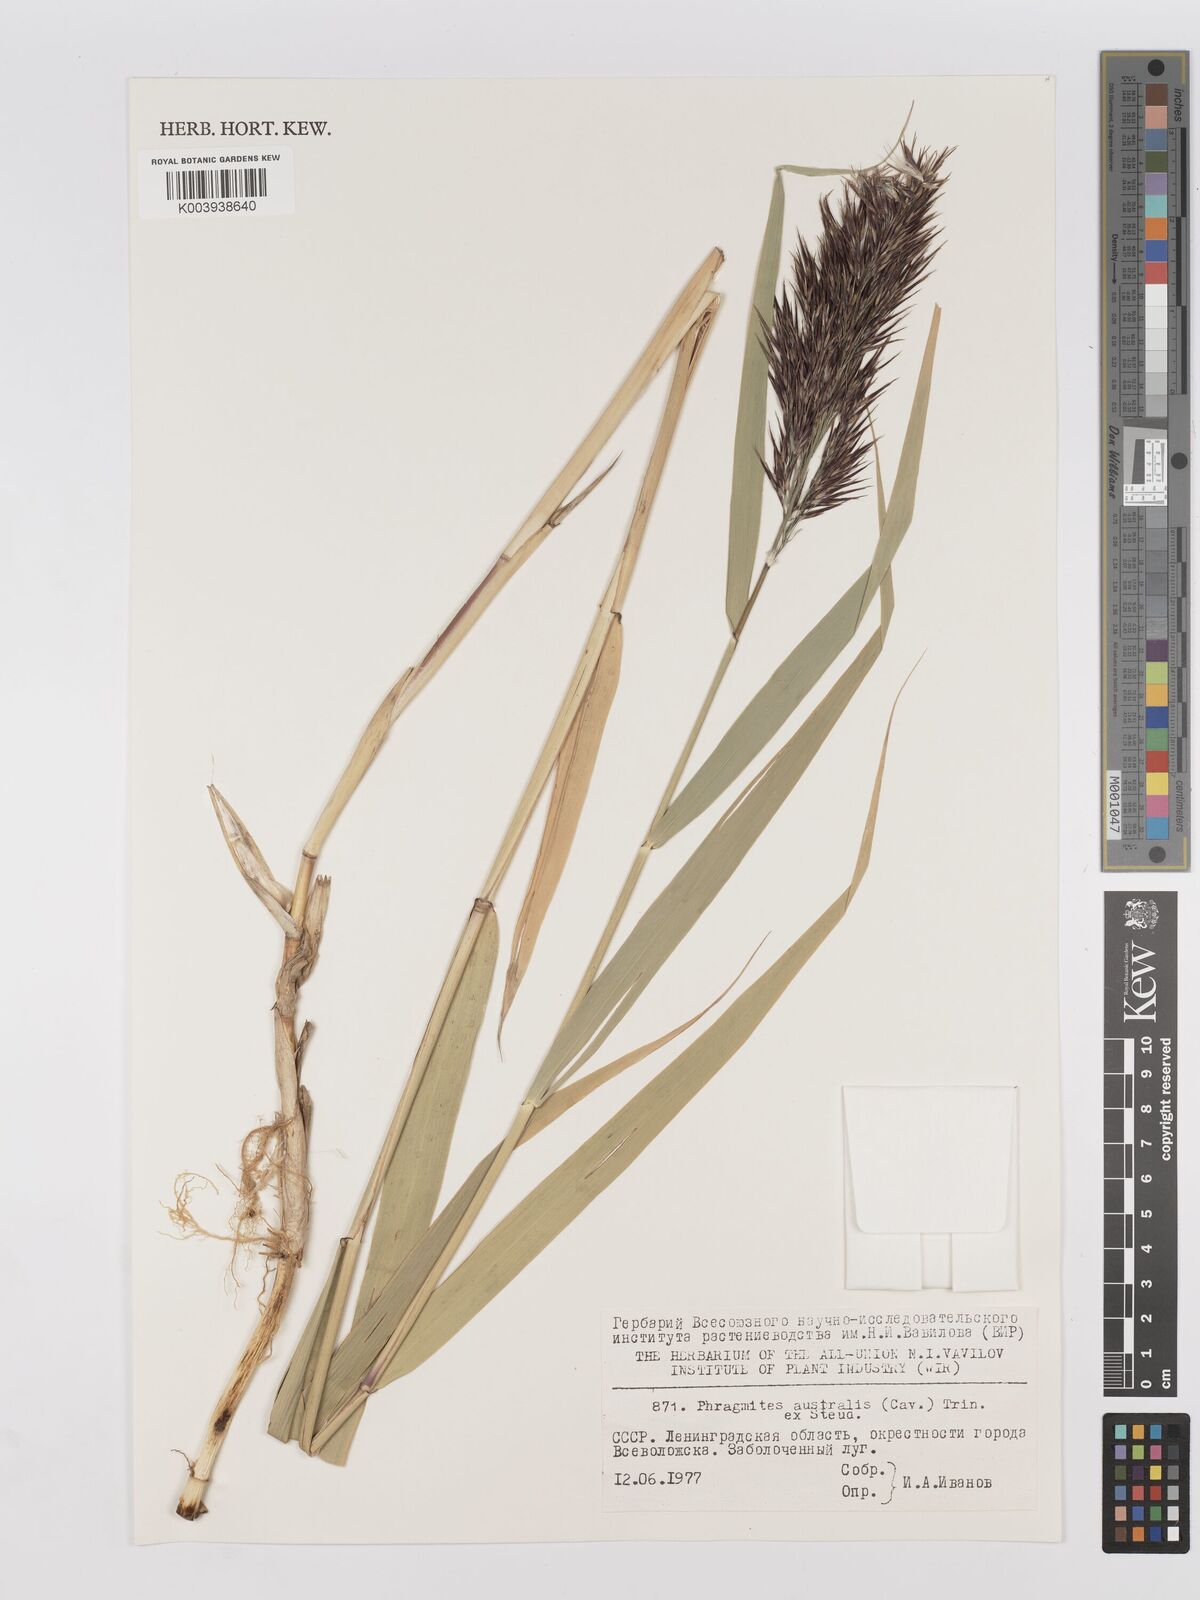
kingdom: Plantae
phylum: Tracheophyta
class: Liliopsida
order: Poales
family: Poaceae
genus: Phragmites
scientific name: Phragmites australis
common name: Common reed
